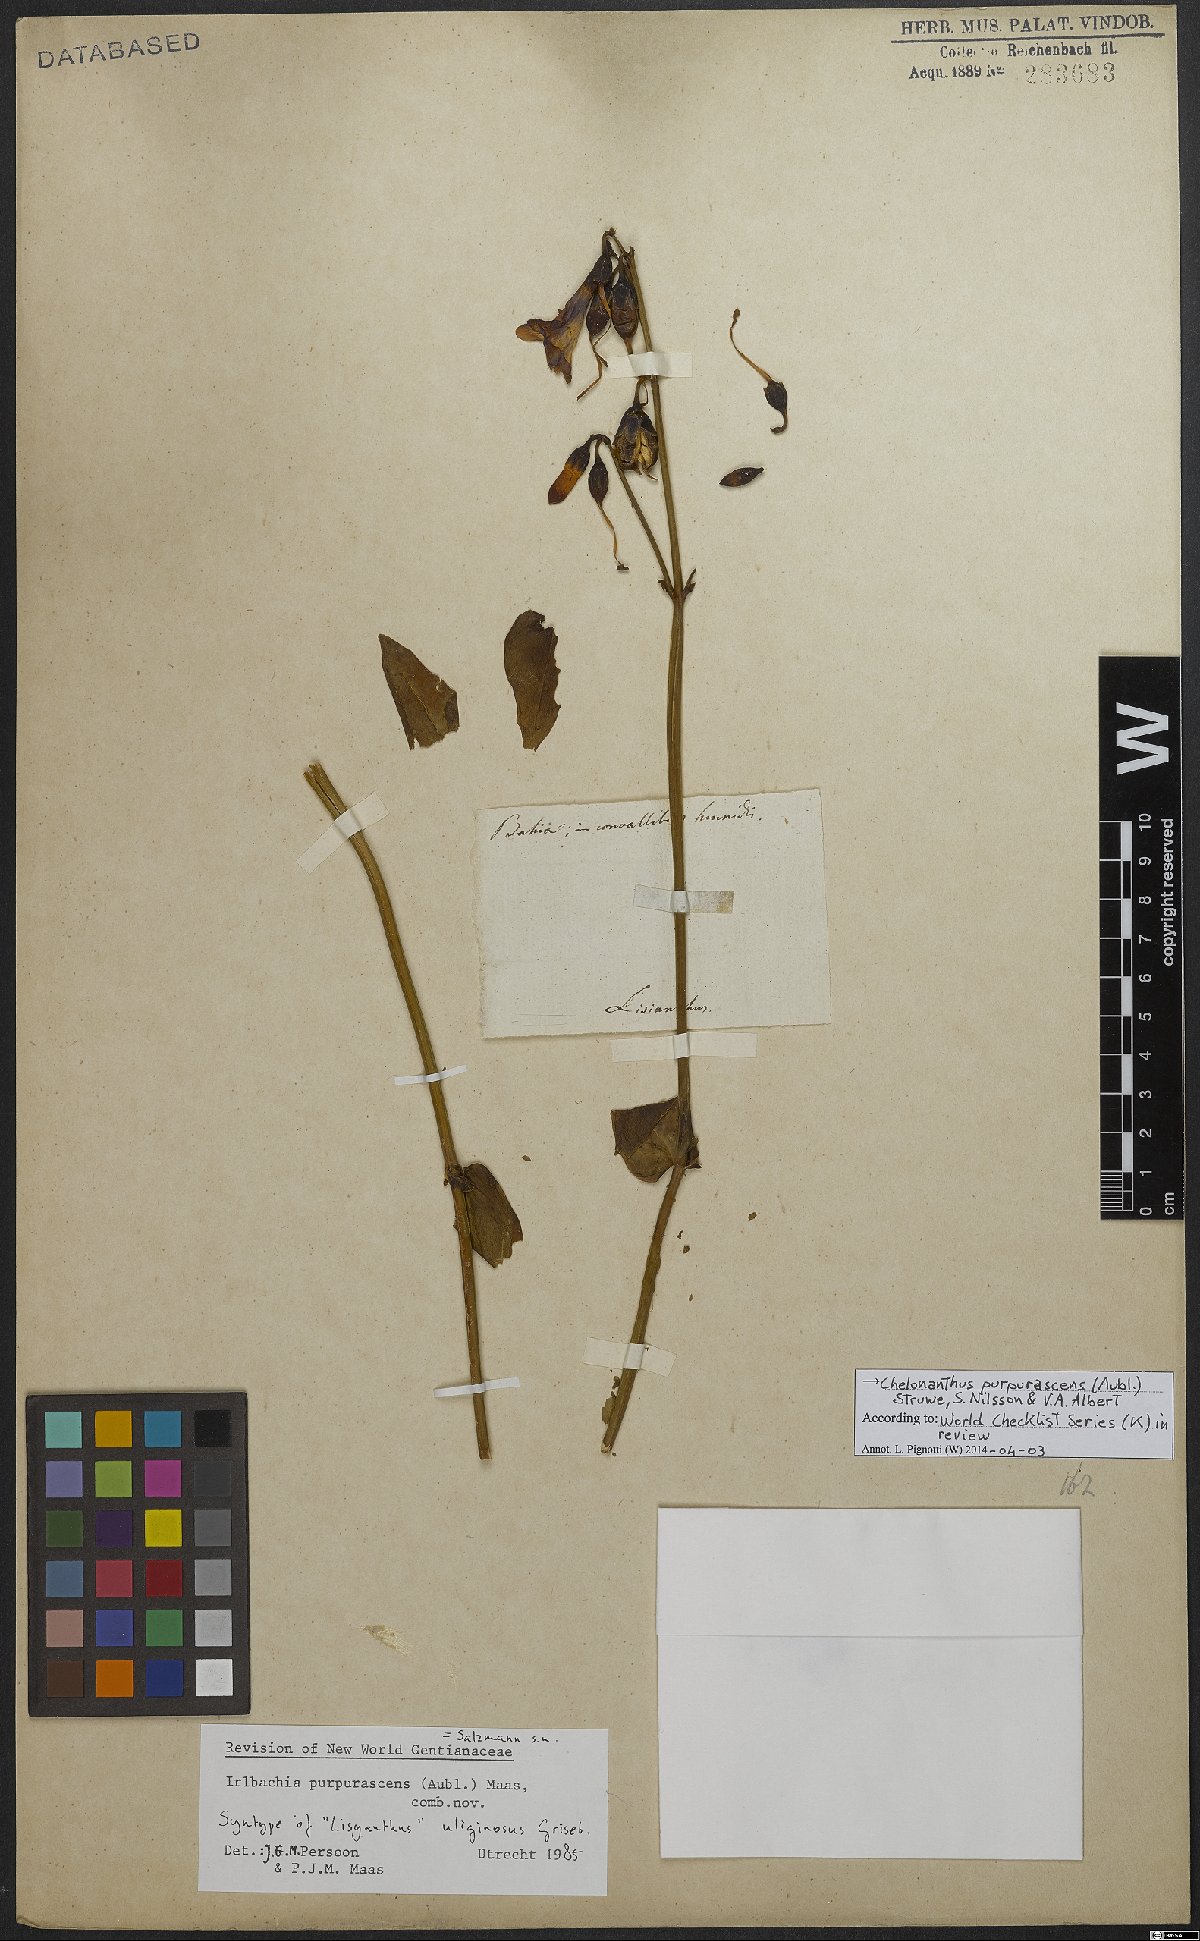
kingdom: Plantae
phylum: Tracheophyta
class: Magnoliopsida
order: Gentianales
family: Gentianaceae
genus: Chelonanthus
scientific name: Chelonanthus purpurascens
